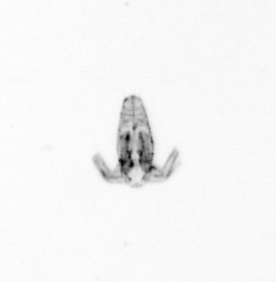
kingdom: Animalia
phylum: Arthropoda
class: Copepoda
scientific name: Copepoda
